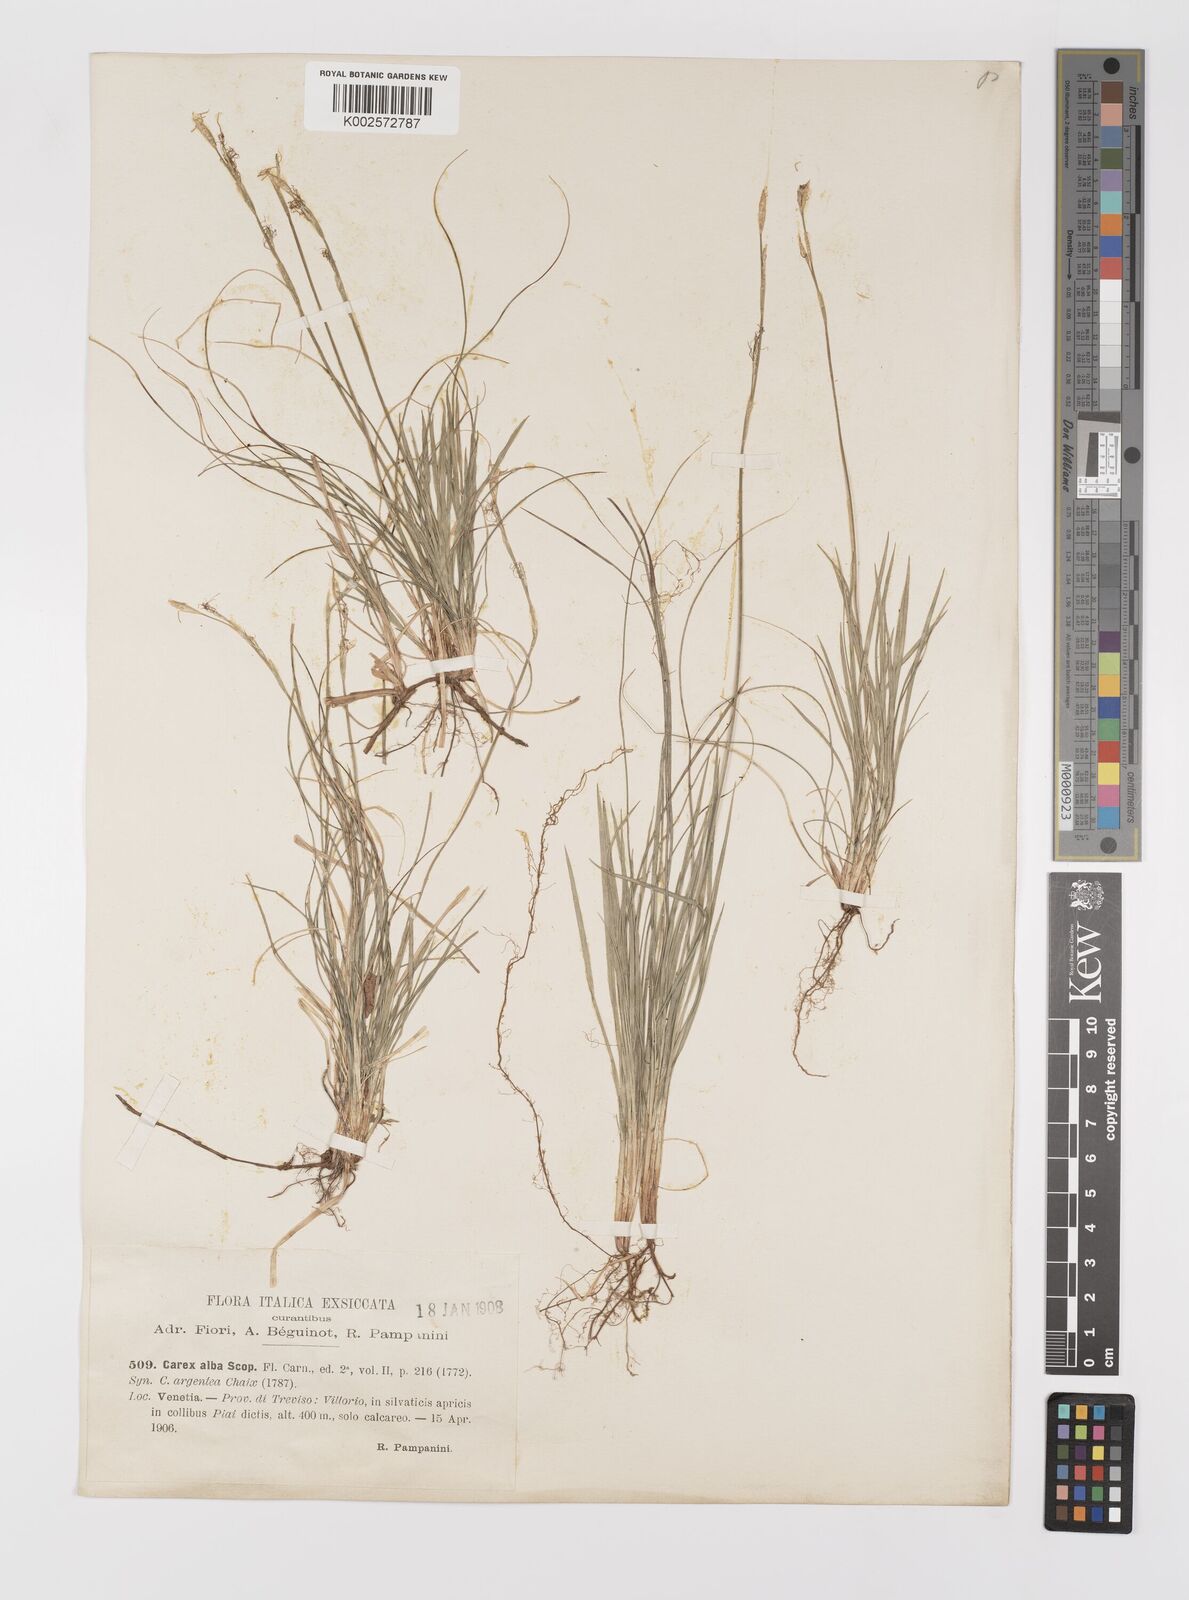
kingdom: Plantae
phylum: Tracheophyta
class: Liliopsida
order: Poales
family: Cyperaceae
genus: Carex
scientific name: Carex alba
